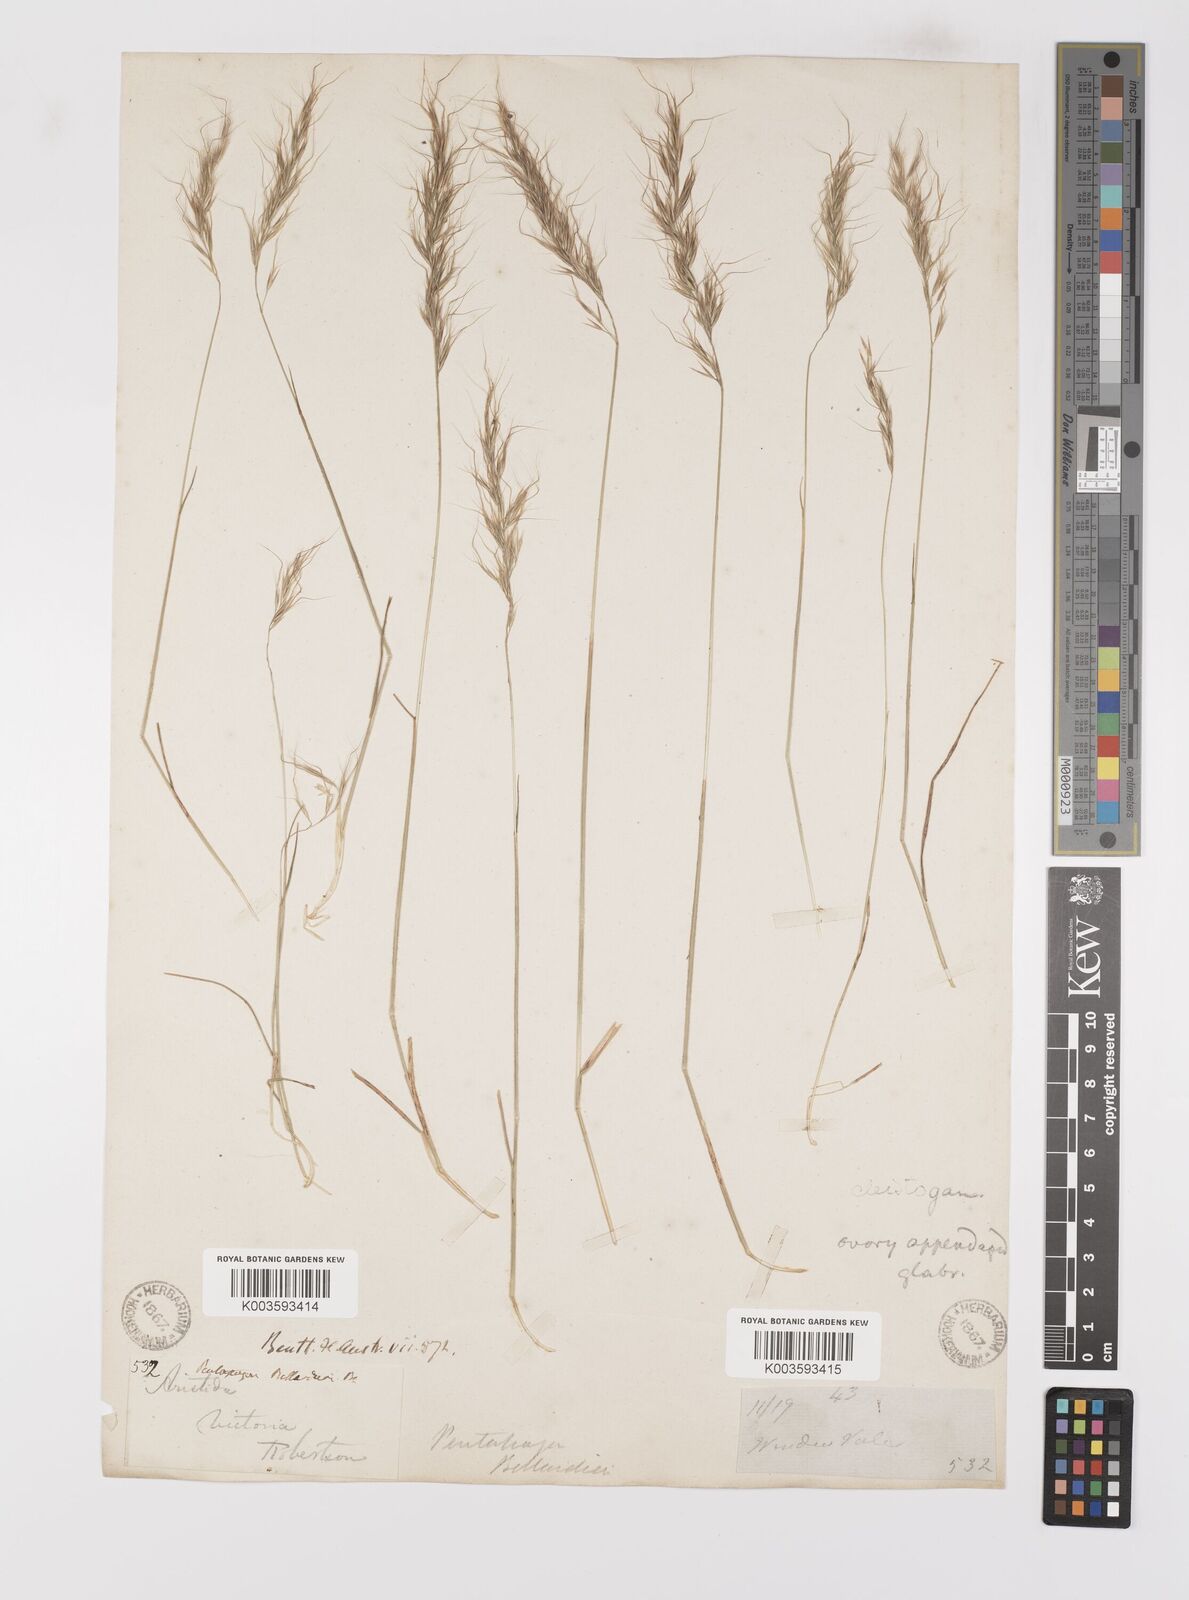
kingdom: Plantae
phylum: Tracheophyta
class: Liliopsida
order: Poales
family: Poaceae
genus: Pentapogon
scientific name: Pentapogon quadrifidus
